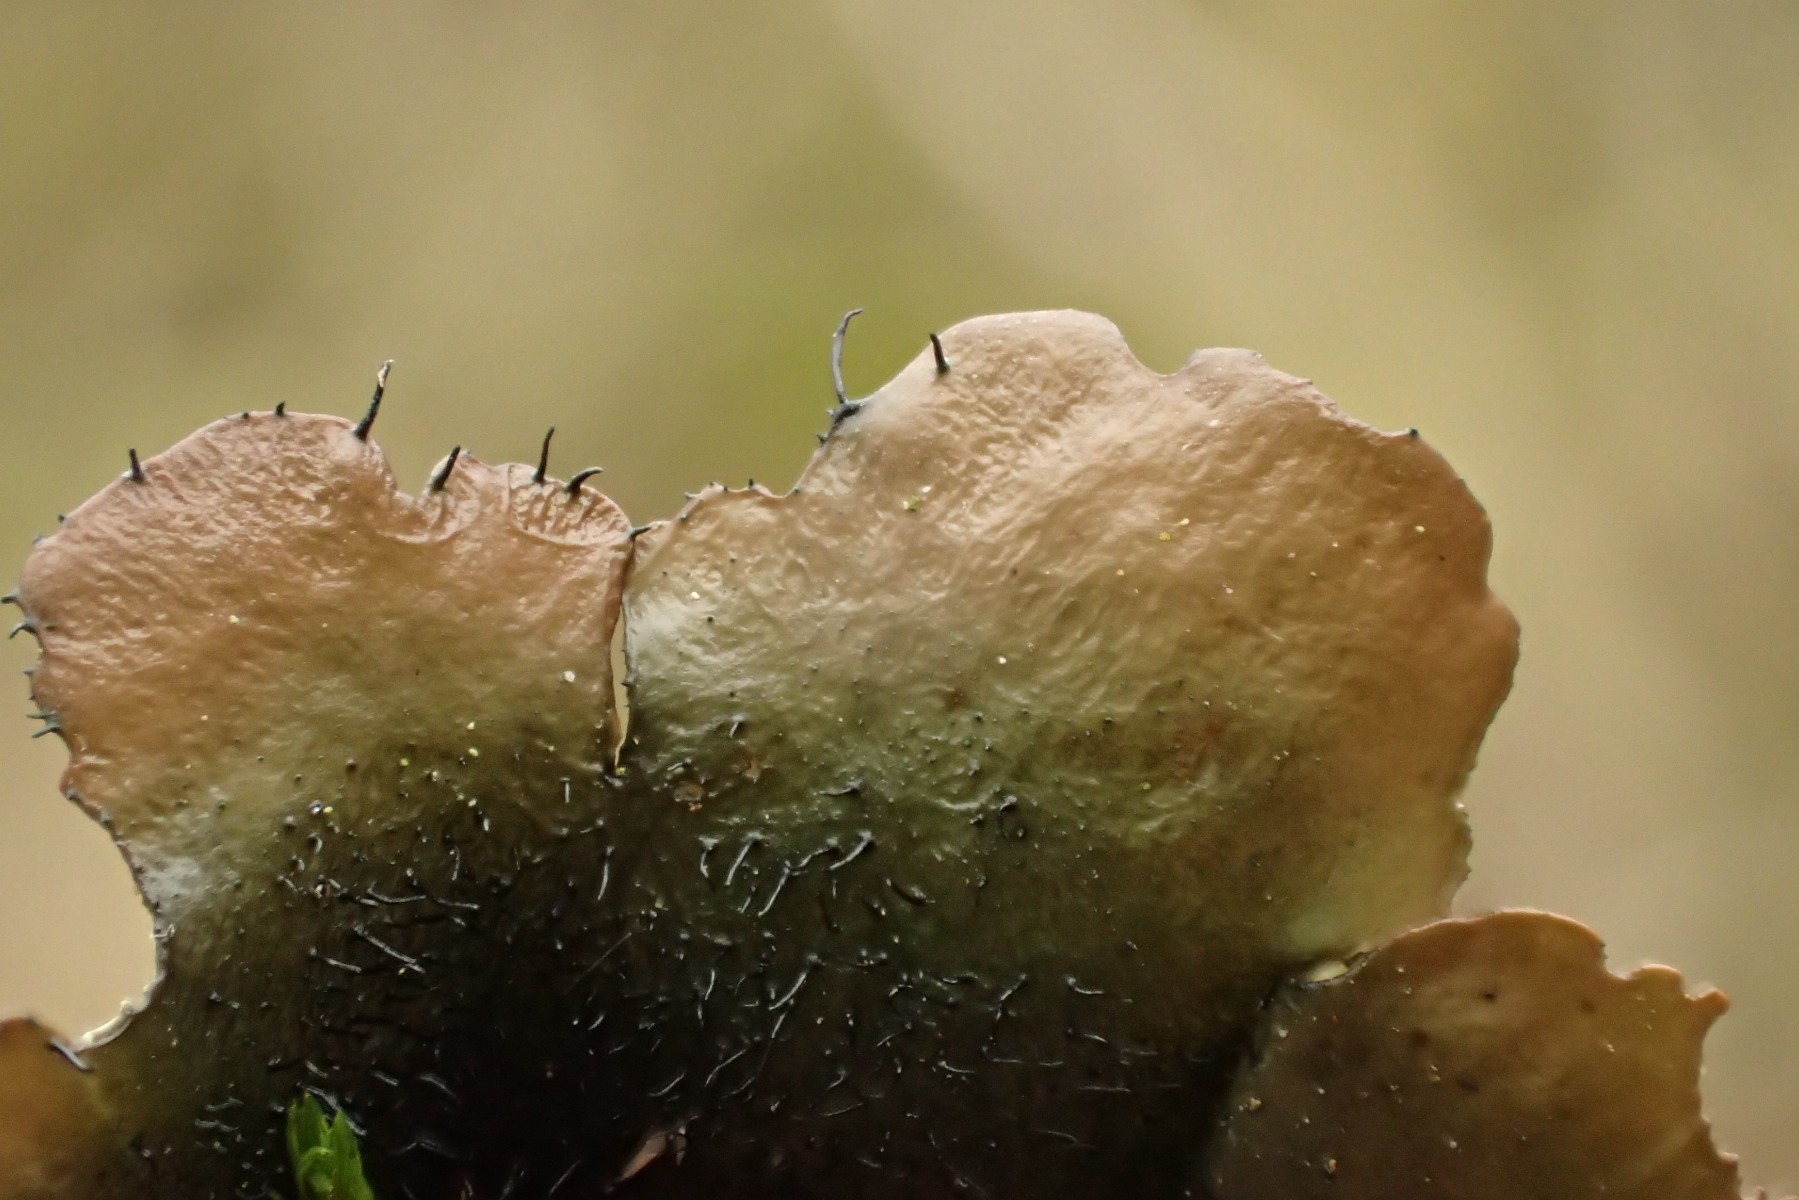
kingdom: Fungi
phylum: Ascomycota
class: Lecanoromycetes
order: Lecanorales
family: Parmeliaceae
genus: Parmotrema
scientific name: Parmotrema perlatum
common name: trådet skållav
